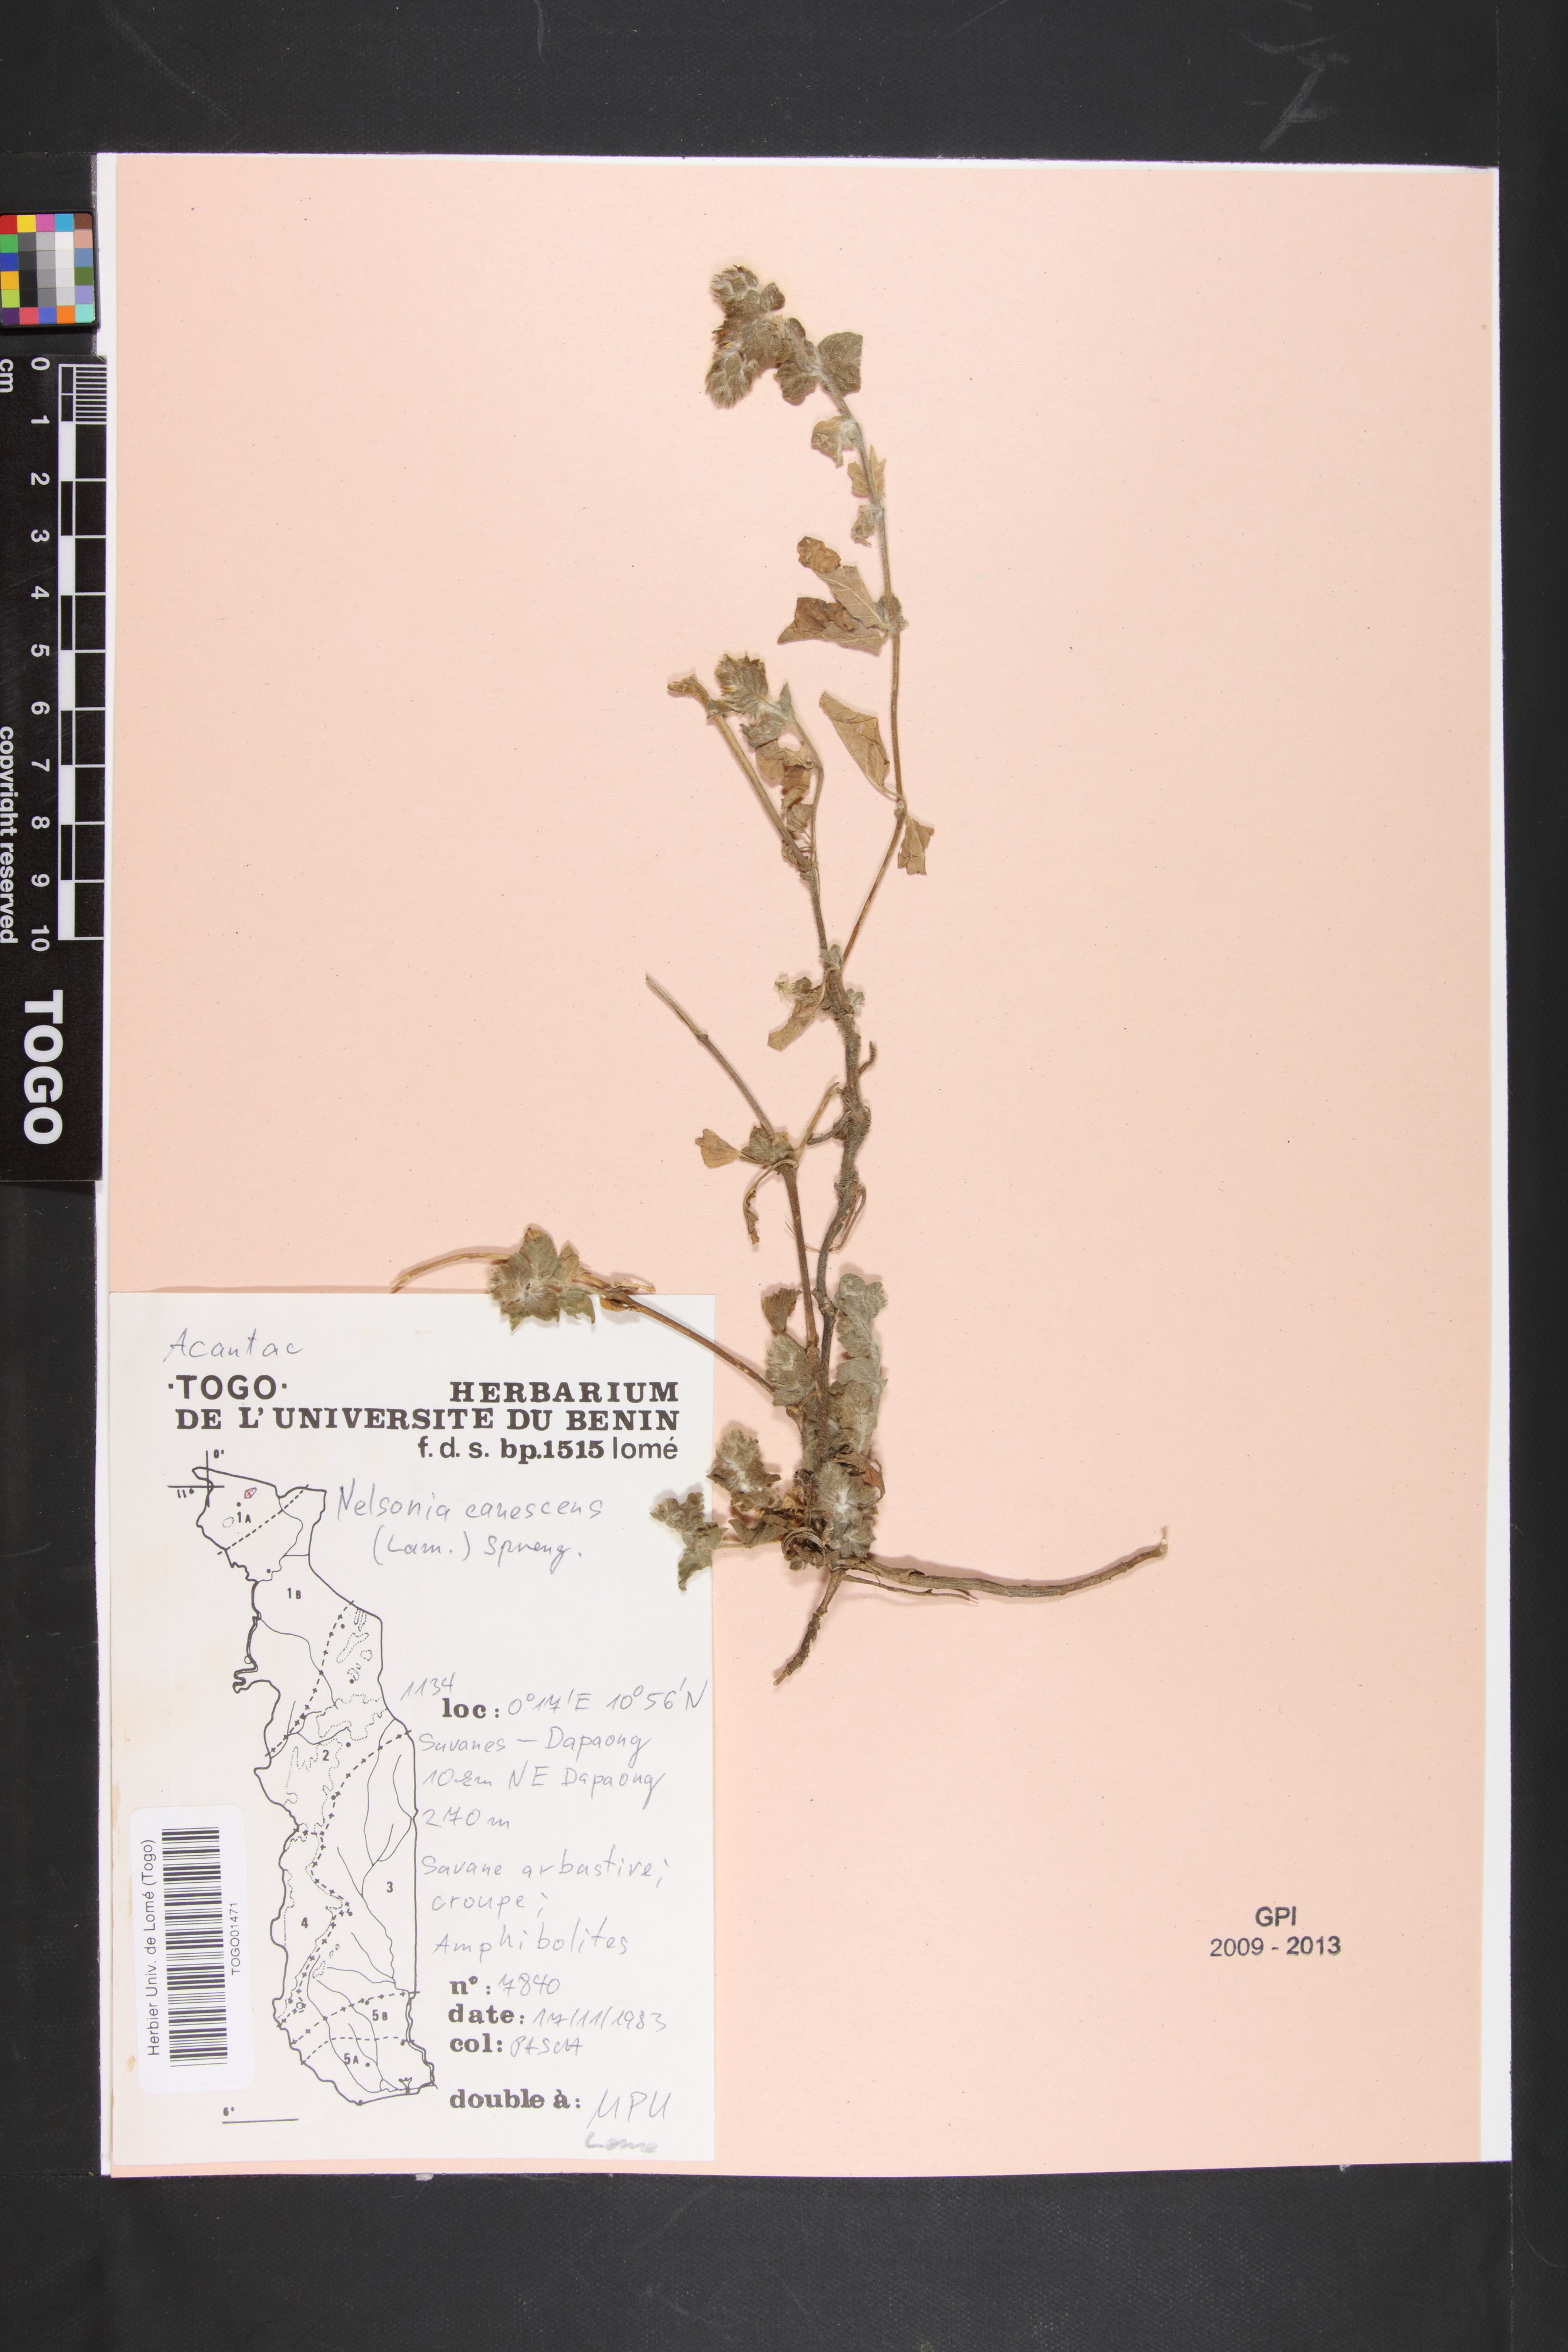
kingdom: Plantae
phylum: Tracheophyta
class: Magnoliopsida
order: Lamiales
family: Acanthaceae
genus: Nelsonia
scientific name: Nelsonia canescens
